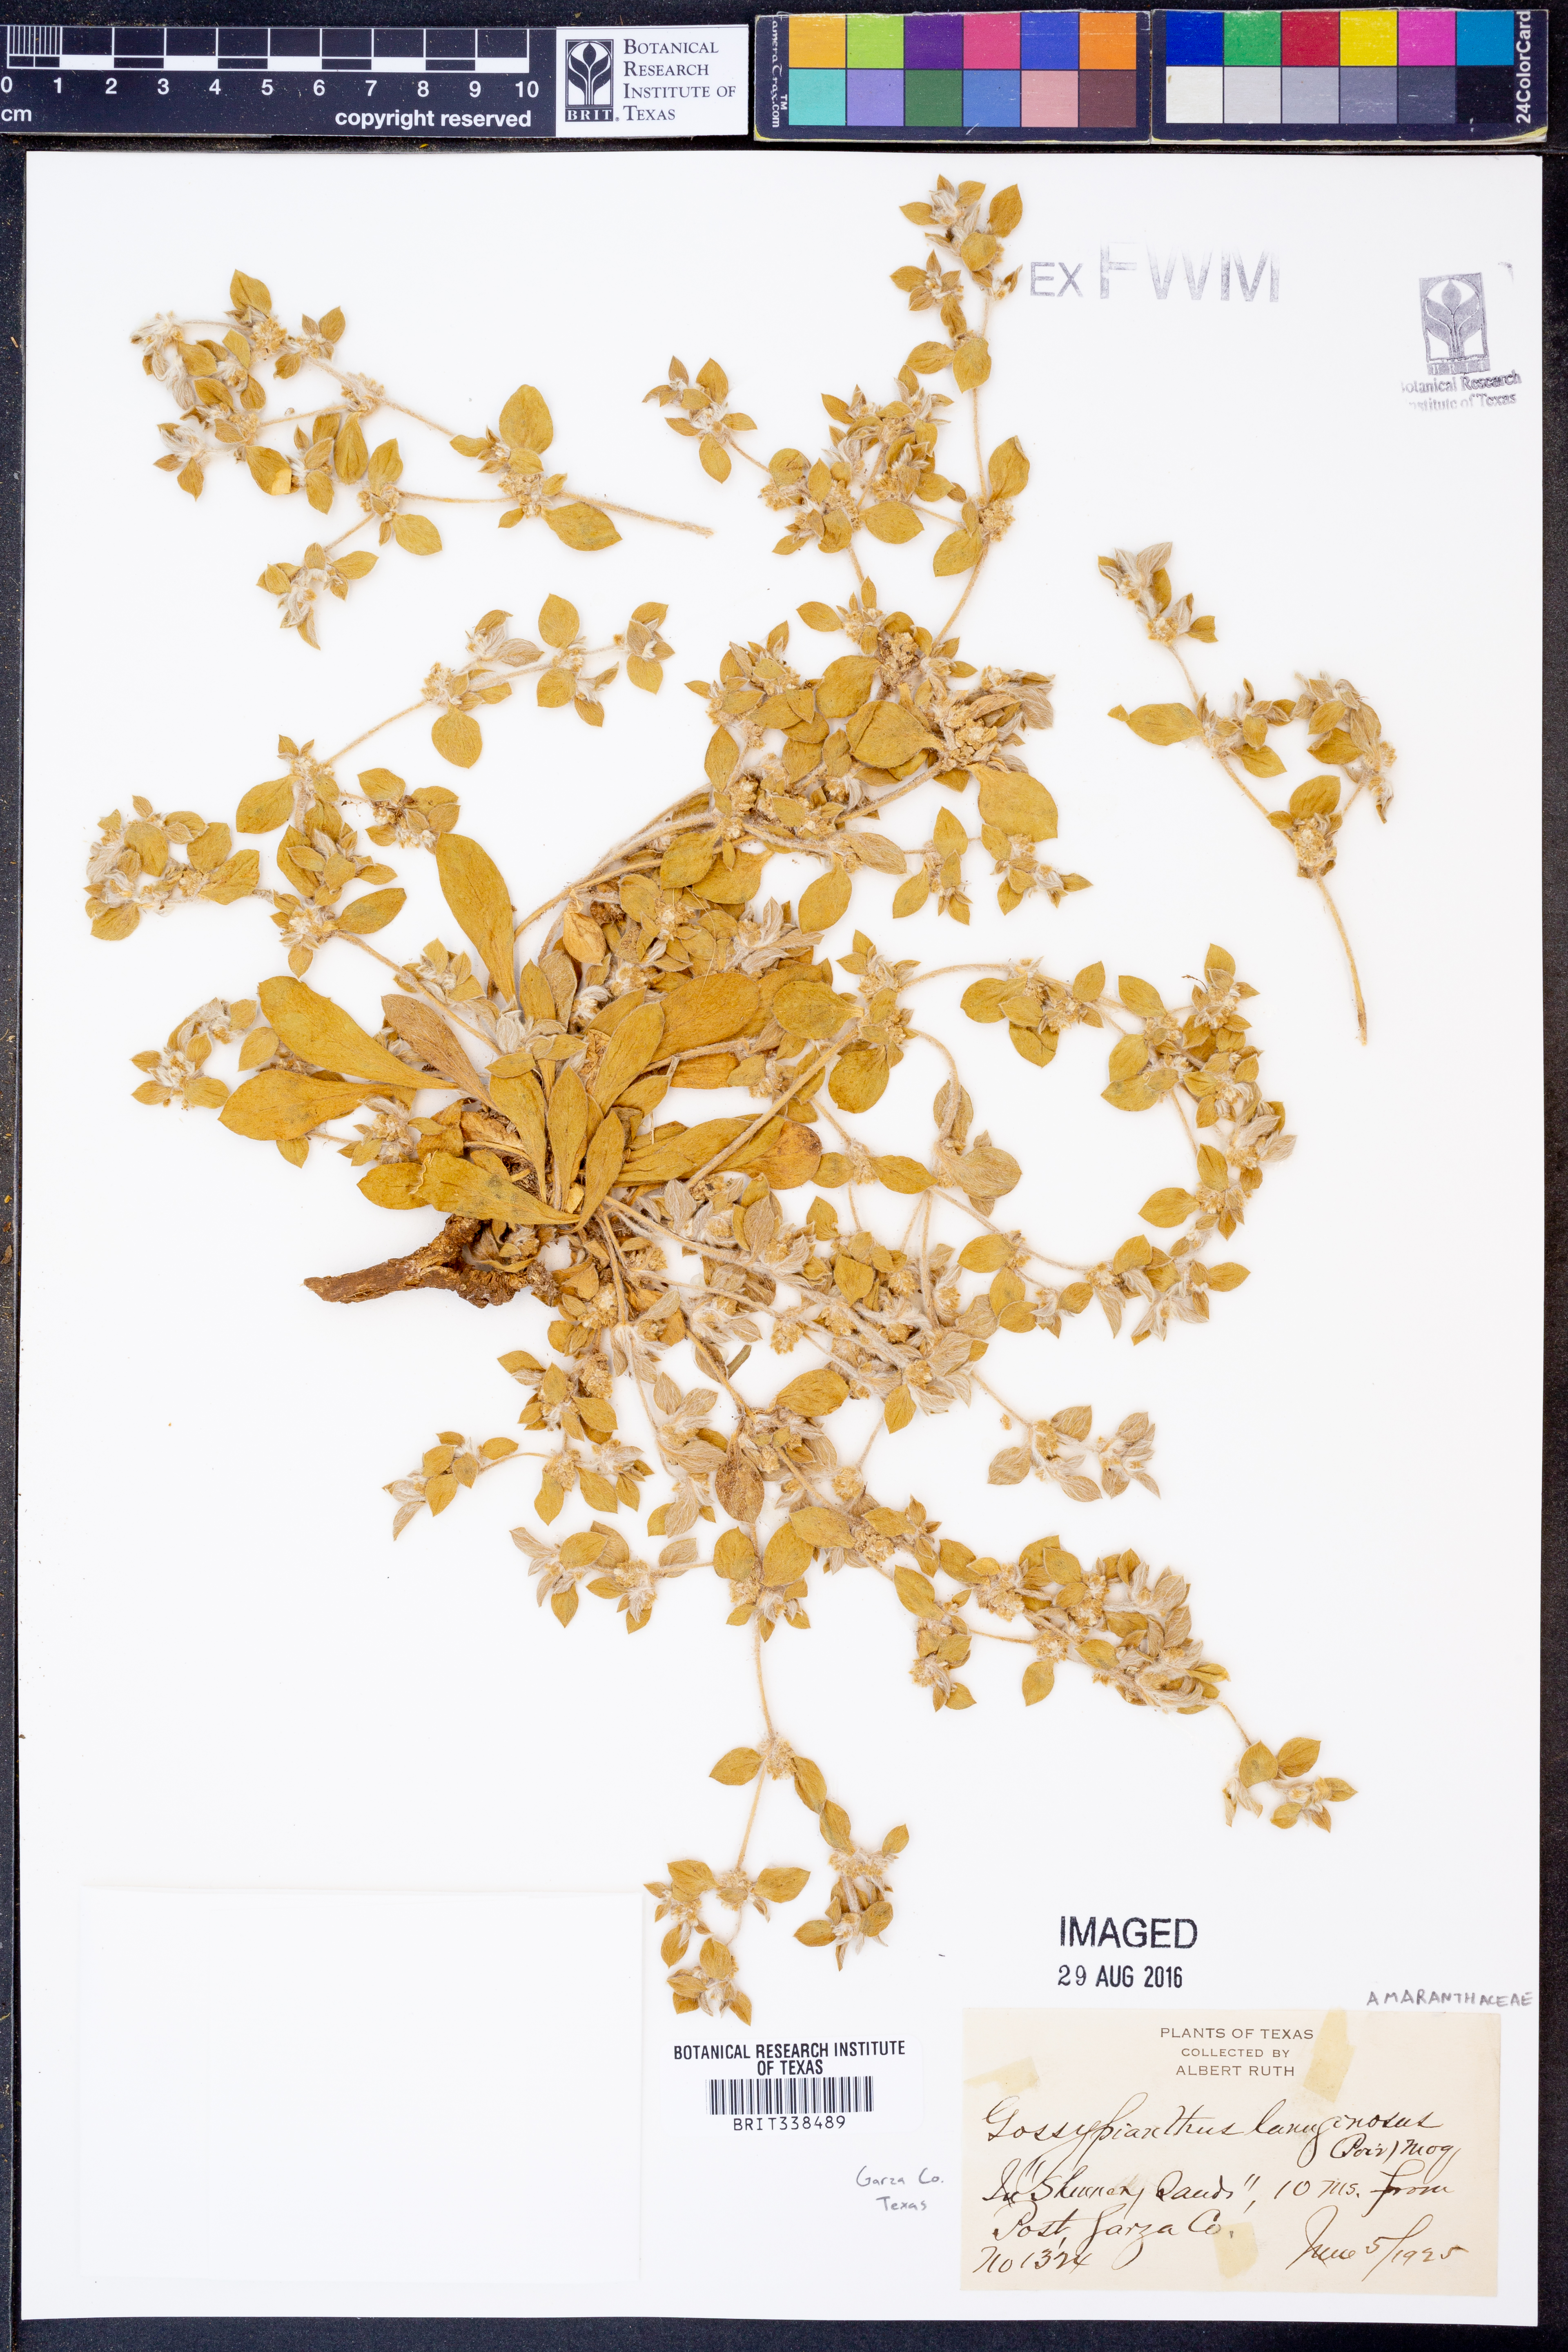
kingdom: Plantae
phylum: Tracheophyta
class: Magnoliopsida
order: Caryophyllales
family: Amaranthaceae
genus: Gomphrena
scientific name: Gomphrena lanuparonychioides
